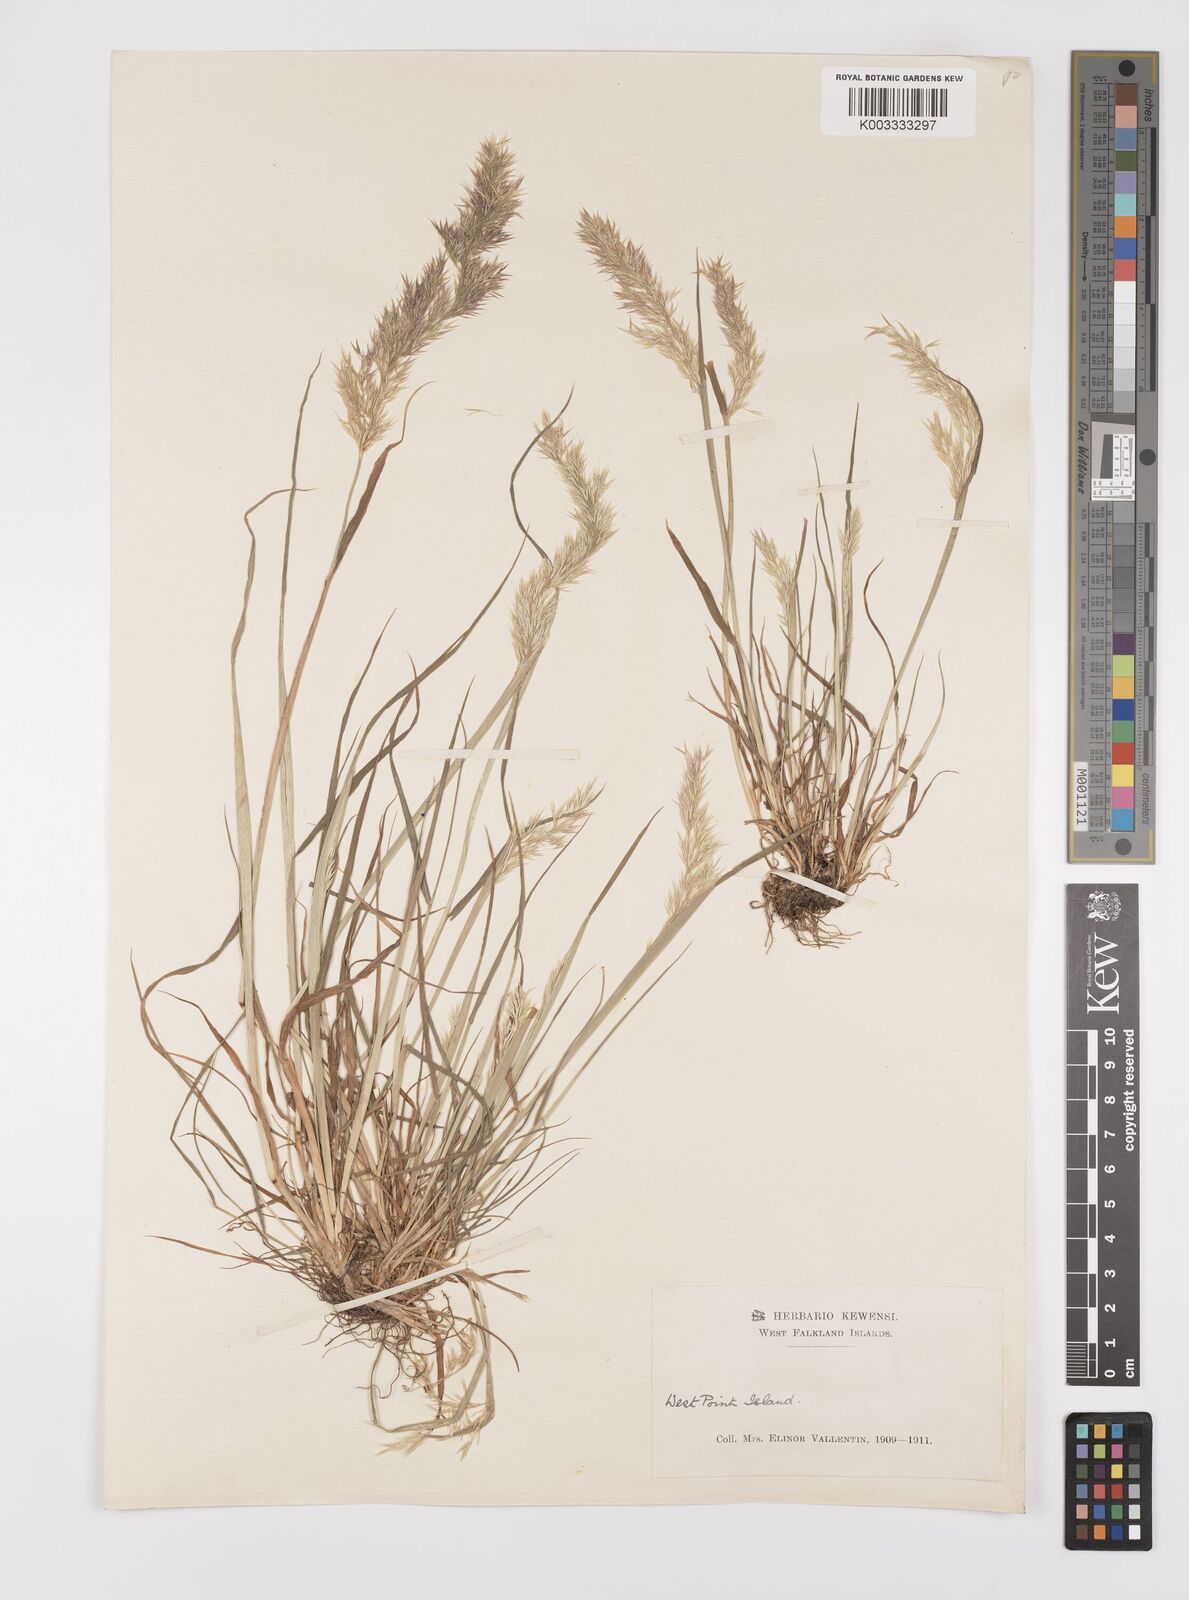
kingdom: Plantae
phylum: Tracheophyta
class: Liliopsida
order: Poales
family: Poaceae
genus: Polypogon
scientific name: Polypogon magellanicus
